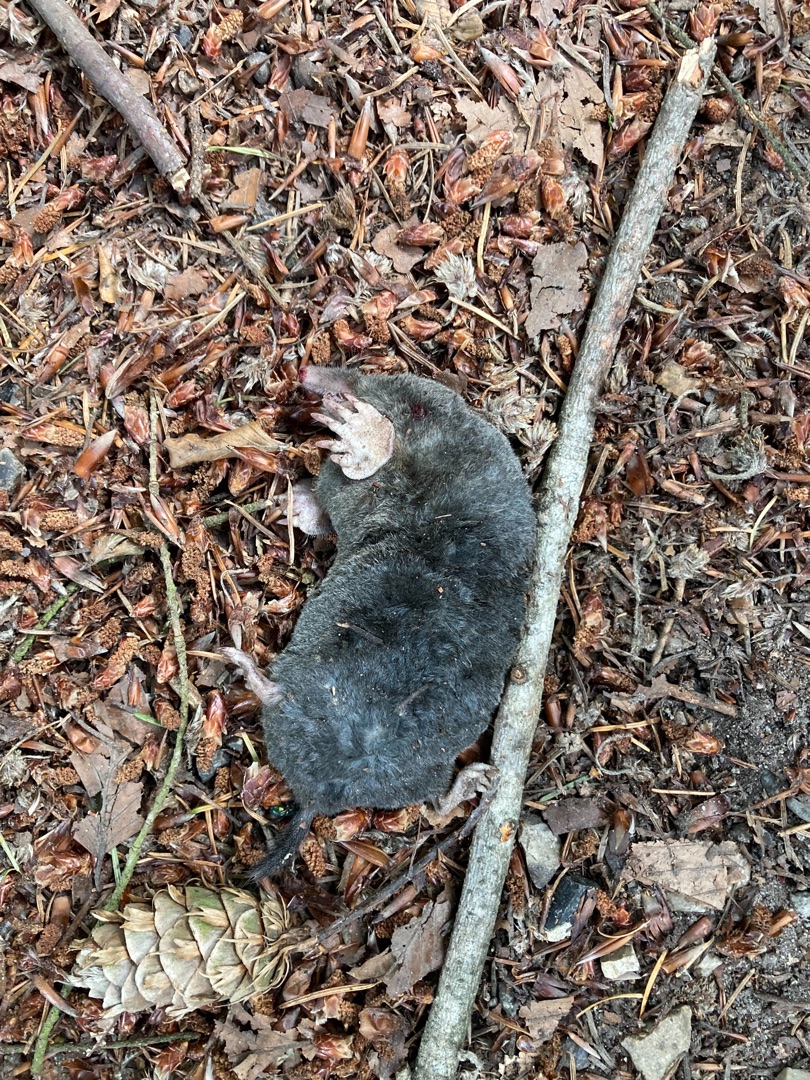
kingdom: Animalia
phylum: Chordata
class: Mammalia
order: Soricomorpha
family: Talpidae
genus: Talpa
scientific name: Talpa europaea
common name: Muldvarp
